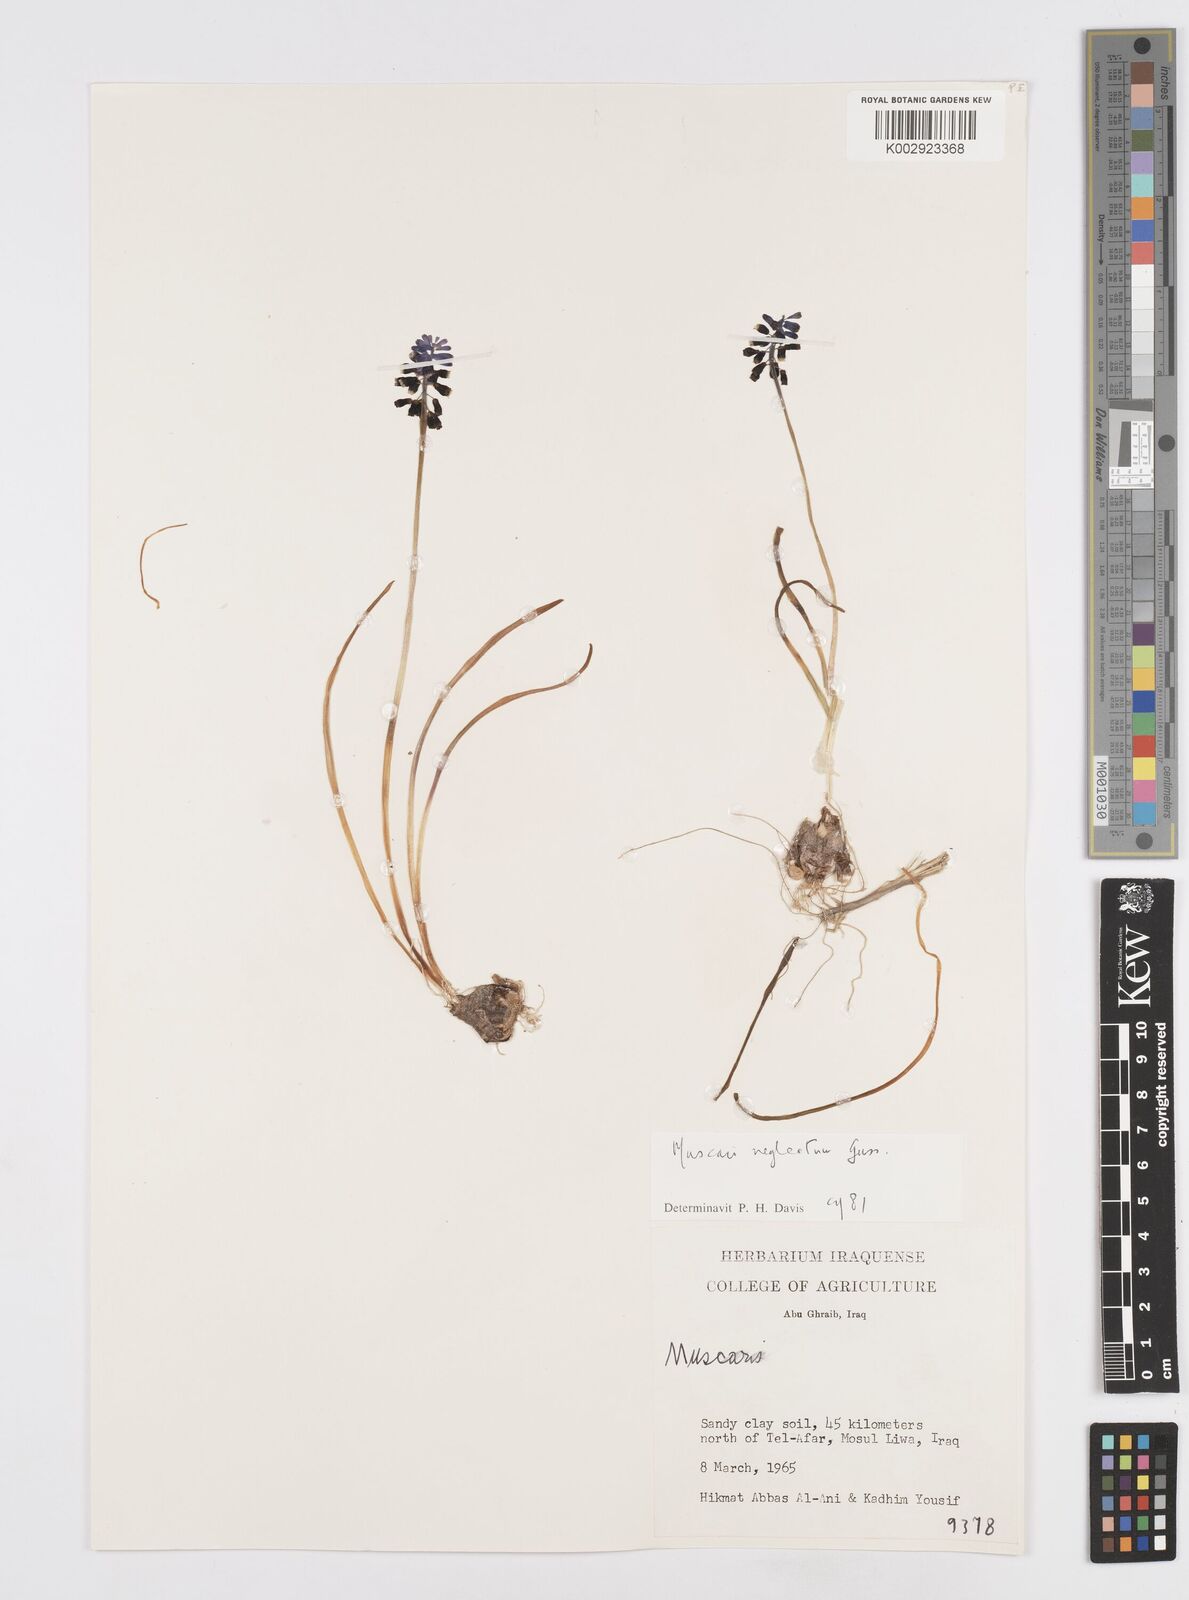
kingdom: Plantae
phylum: Tracheophyta
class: Liliopsida
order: Asparagales
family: Asparagaceae
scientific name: Asparagaceae
